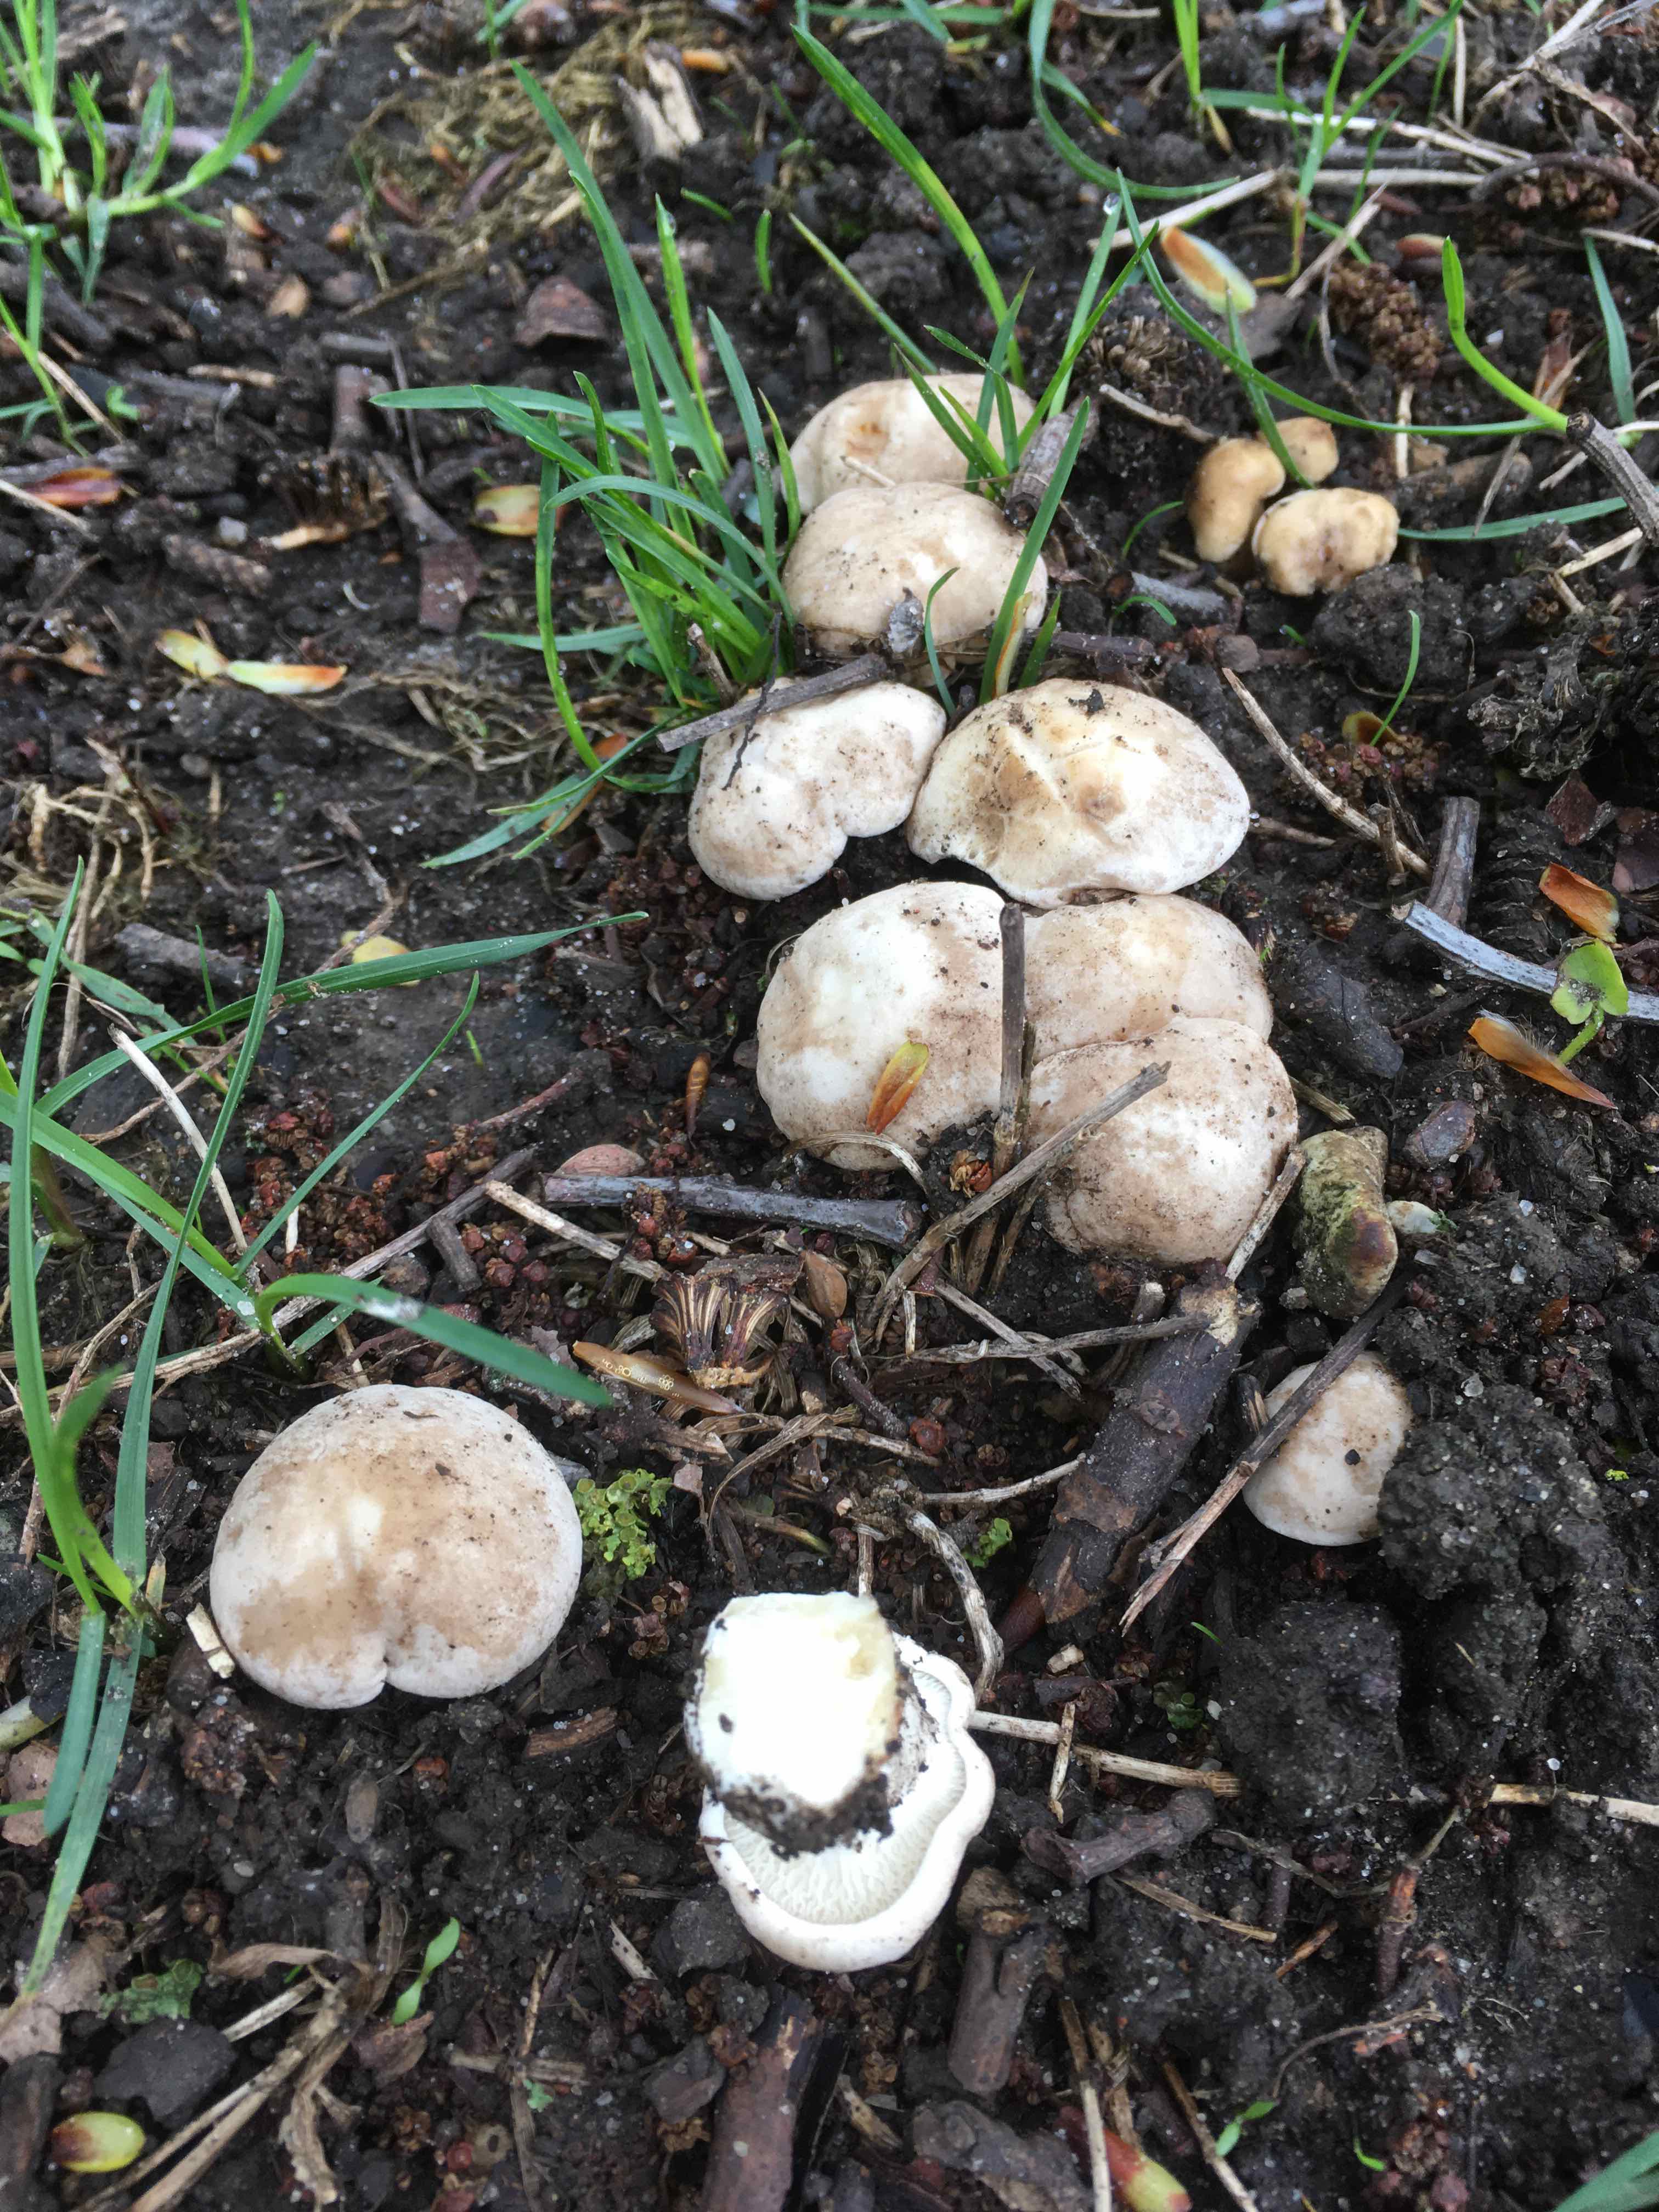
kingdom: Fungi
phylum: Basidiomycota
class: Agaricomycetes
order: Agaricales
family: Lyophyllaceae
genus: Calocybe
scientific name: Calocybe gambosa
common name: vårmusseron
